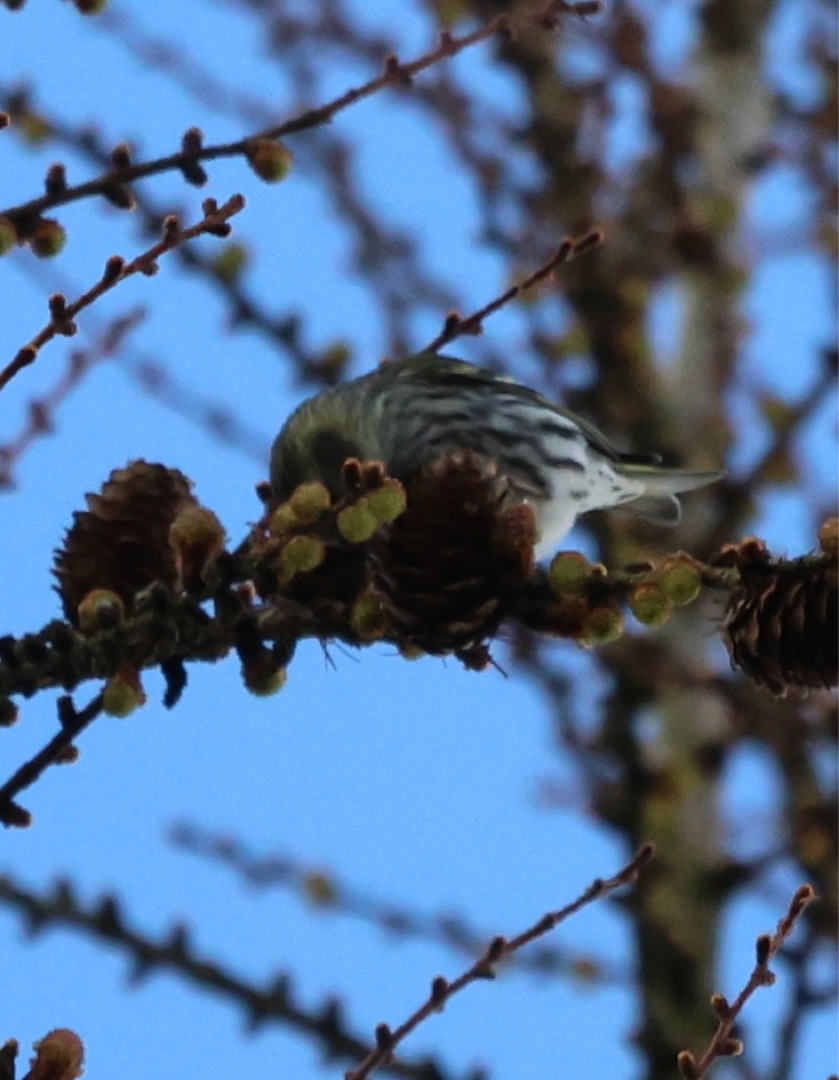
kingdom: Animalia
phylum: Chordata
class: Aves
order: Passeriformes
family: Fringillidae
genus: Spinus
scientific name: Spinus spinus
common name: Grønsisken
